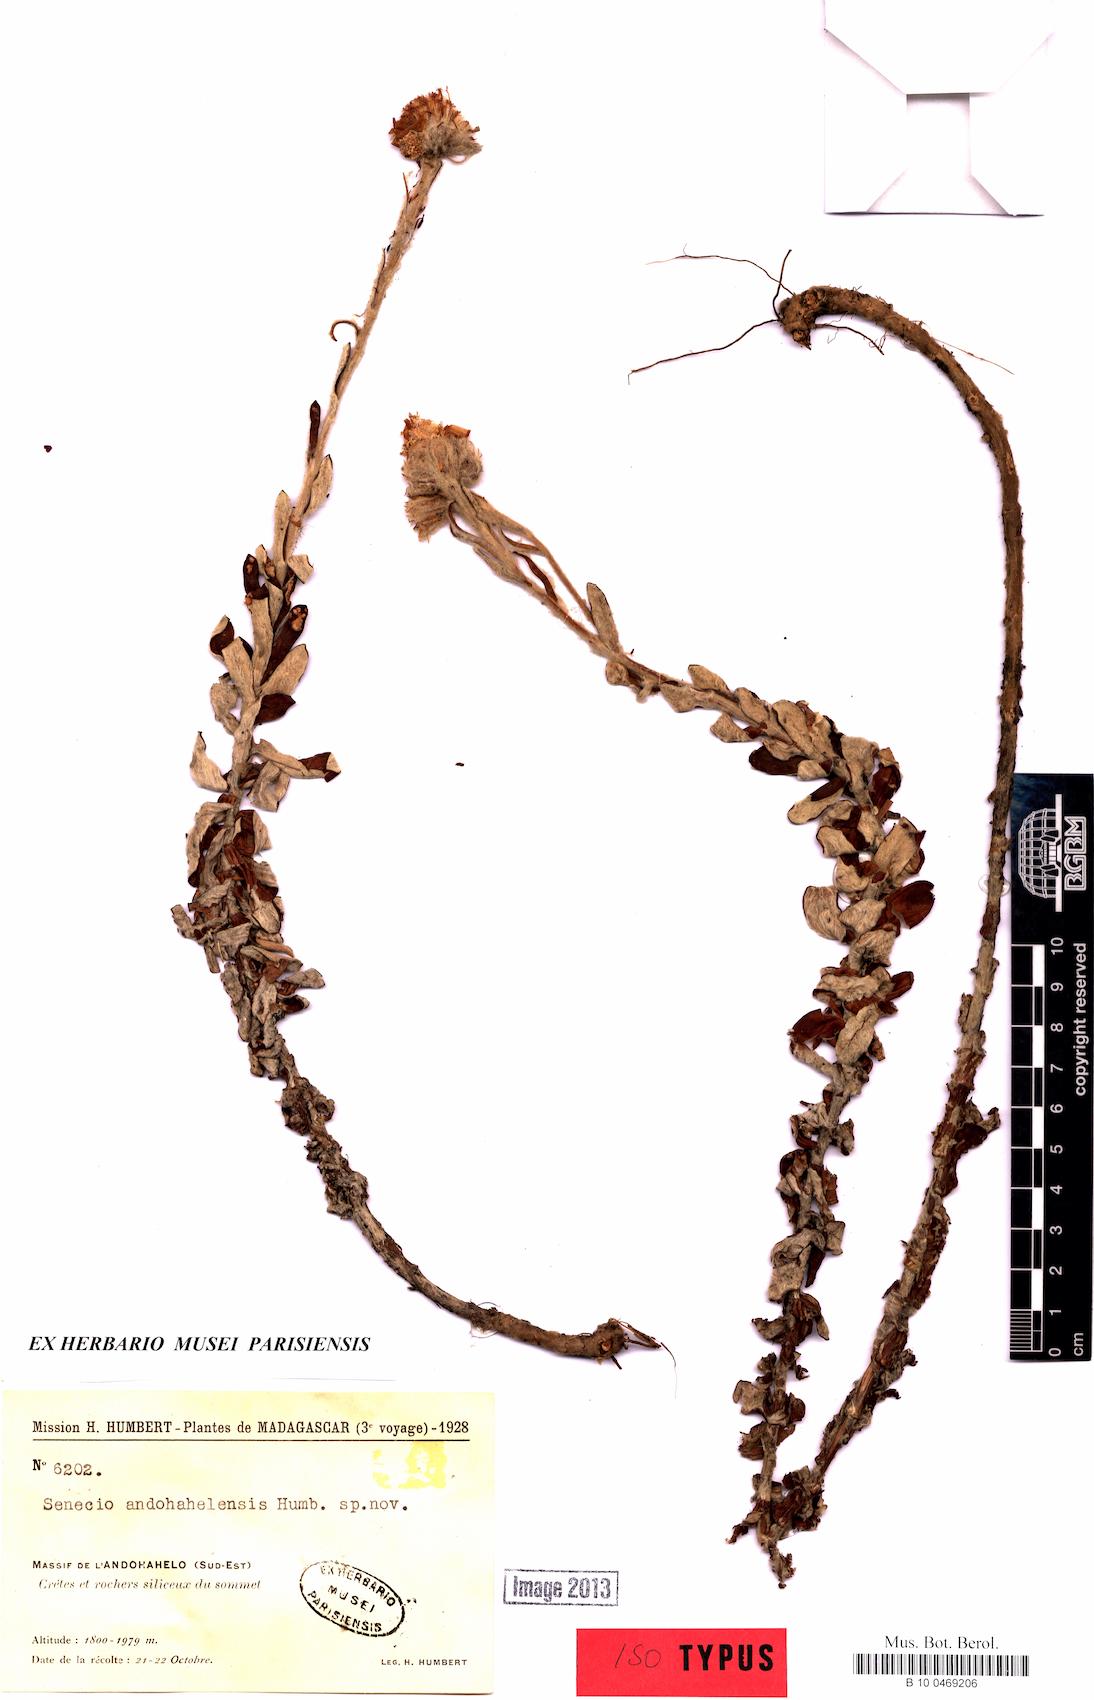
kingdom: Plantae
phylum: Tracheophyta
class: Magnoliopsida
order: Asterales
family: Asteraceae
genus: Senecio
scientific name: Senecio andohahelensis
